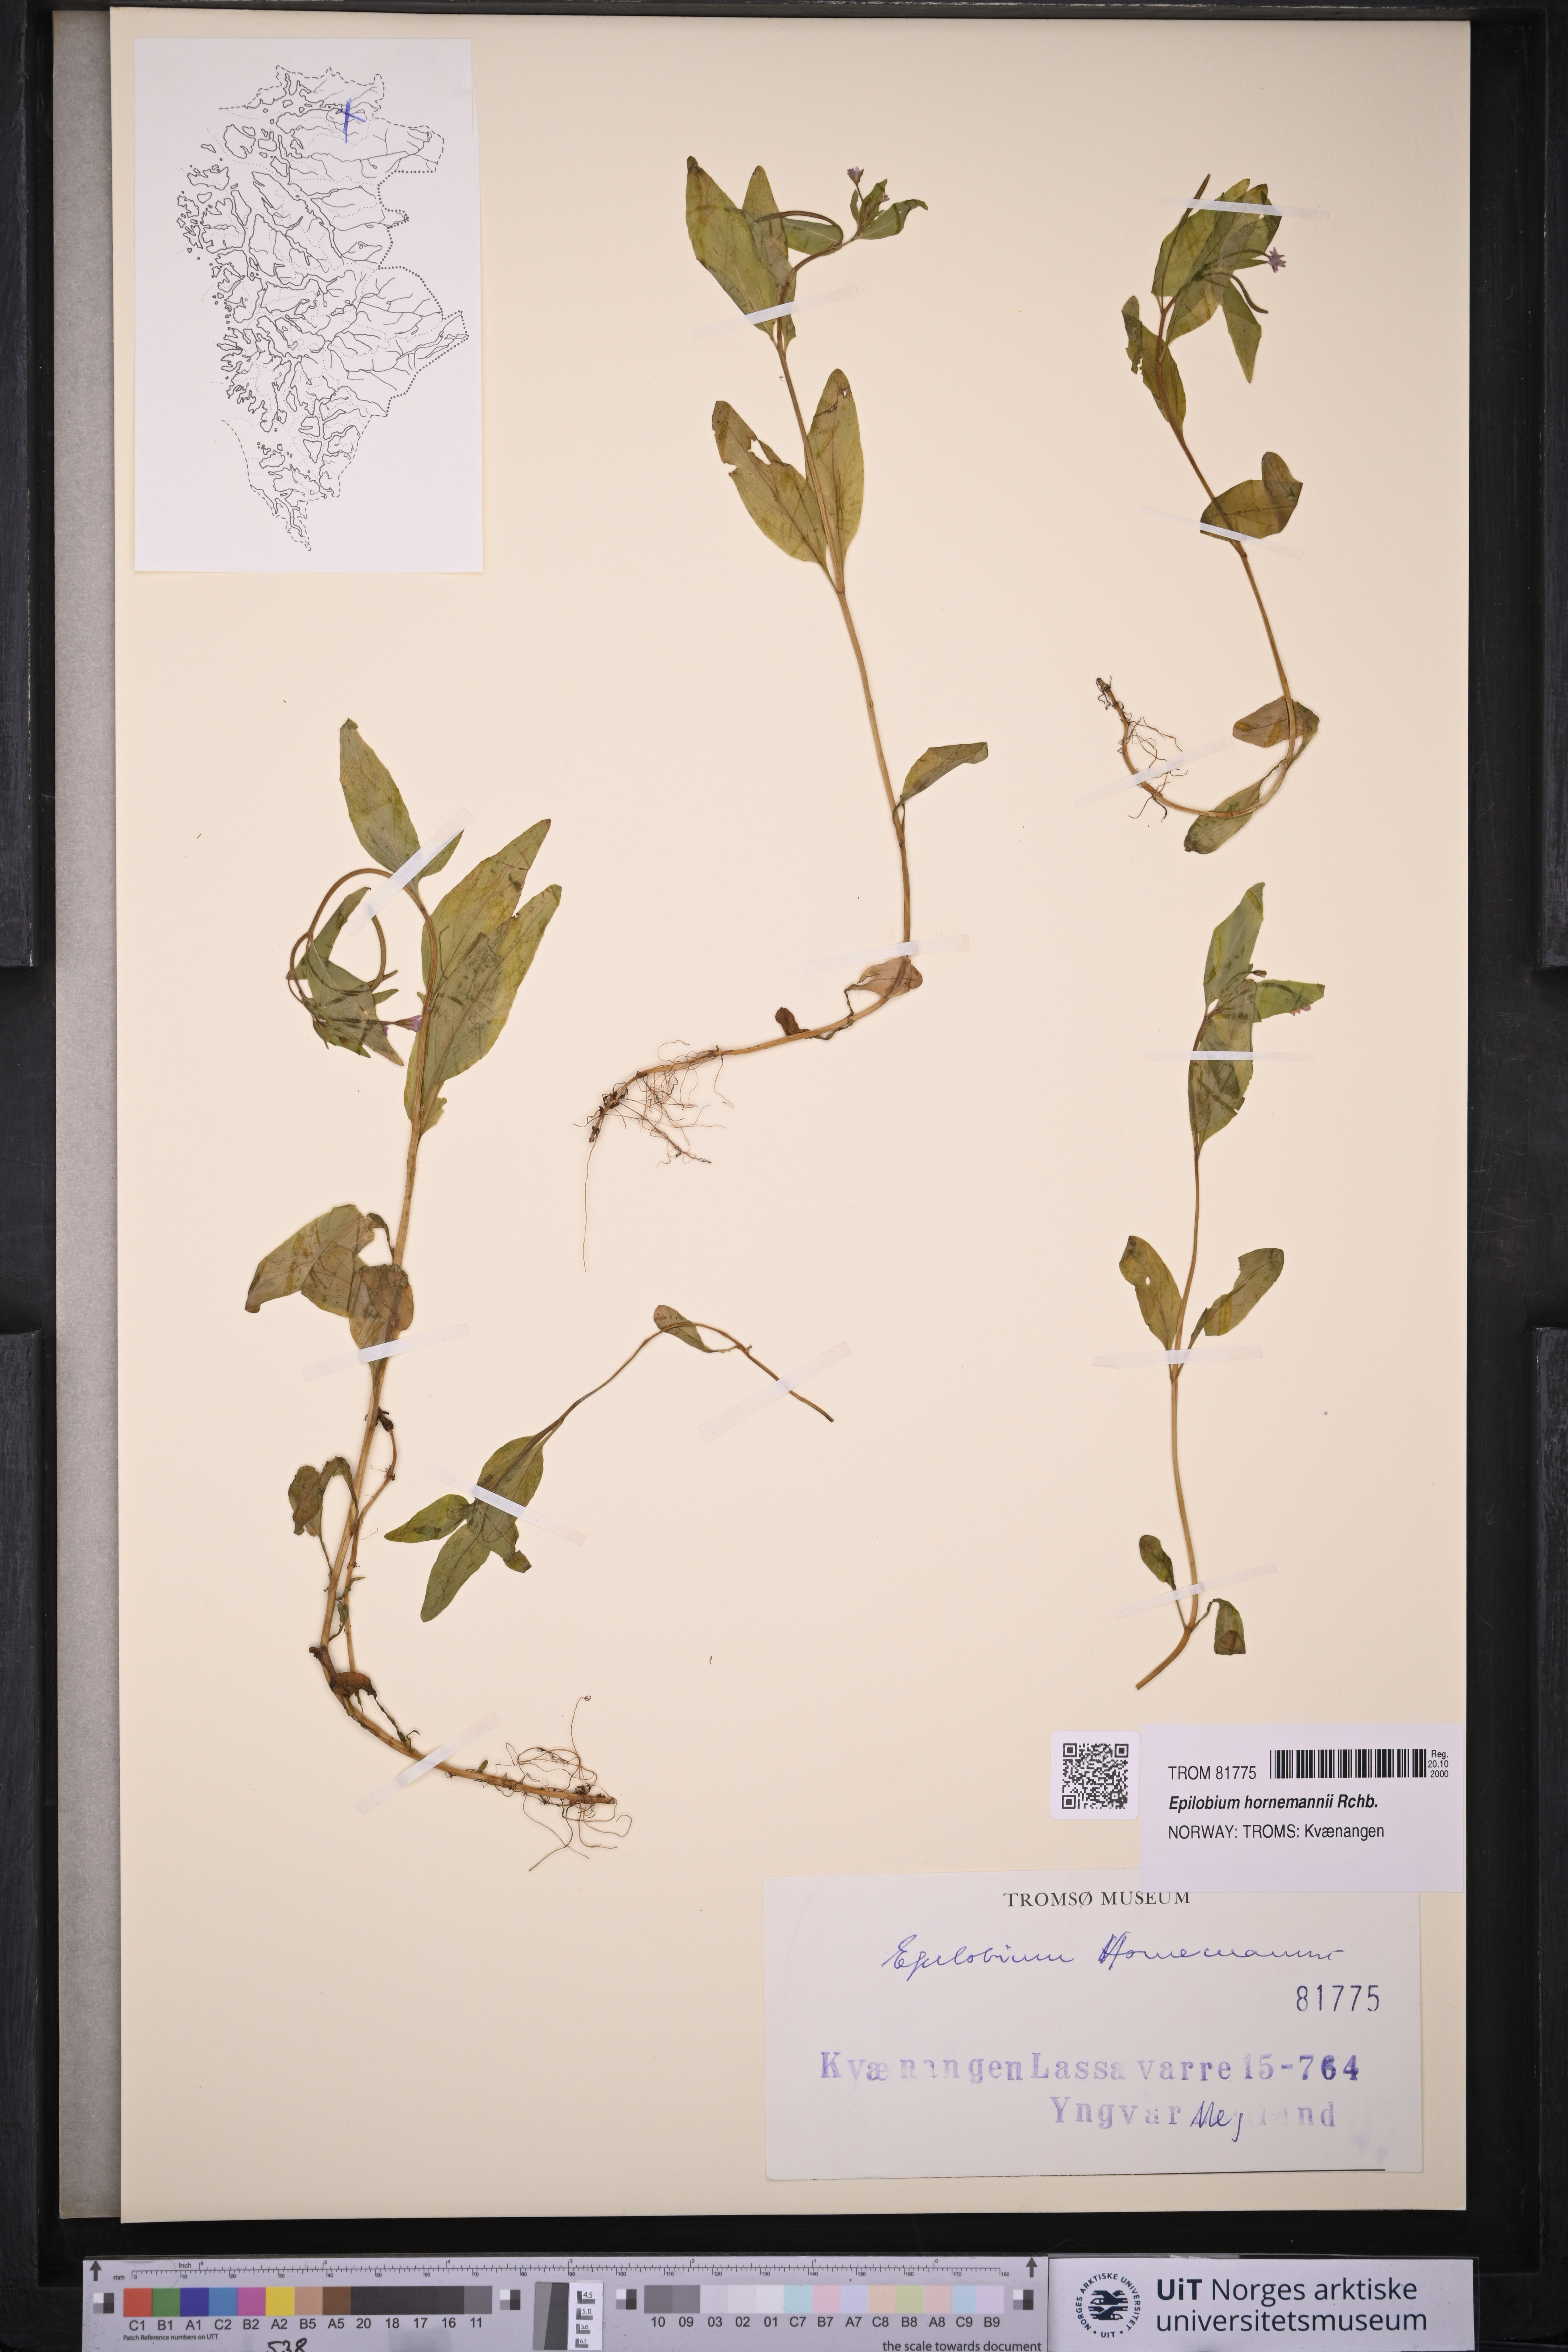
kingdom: Plantae
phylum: Tracheophyta
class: Magnoliopsida
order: Myrtales
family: Onagraceae
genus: Epilobium
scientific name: Epilobium hornemannii
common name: Hornemann's willowherb
